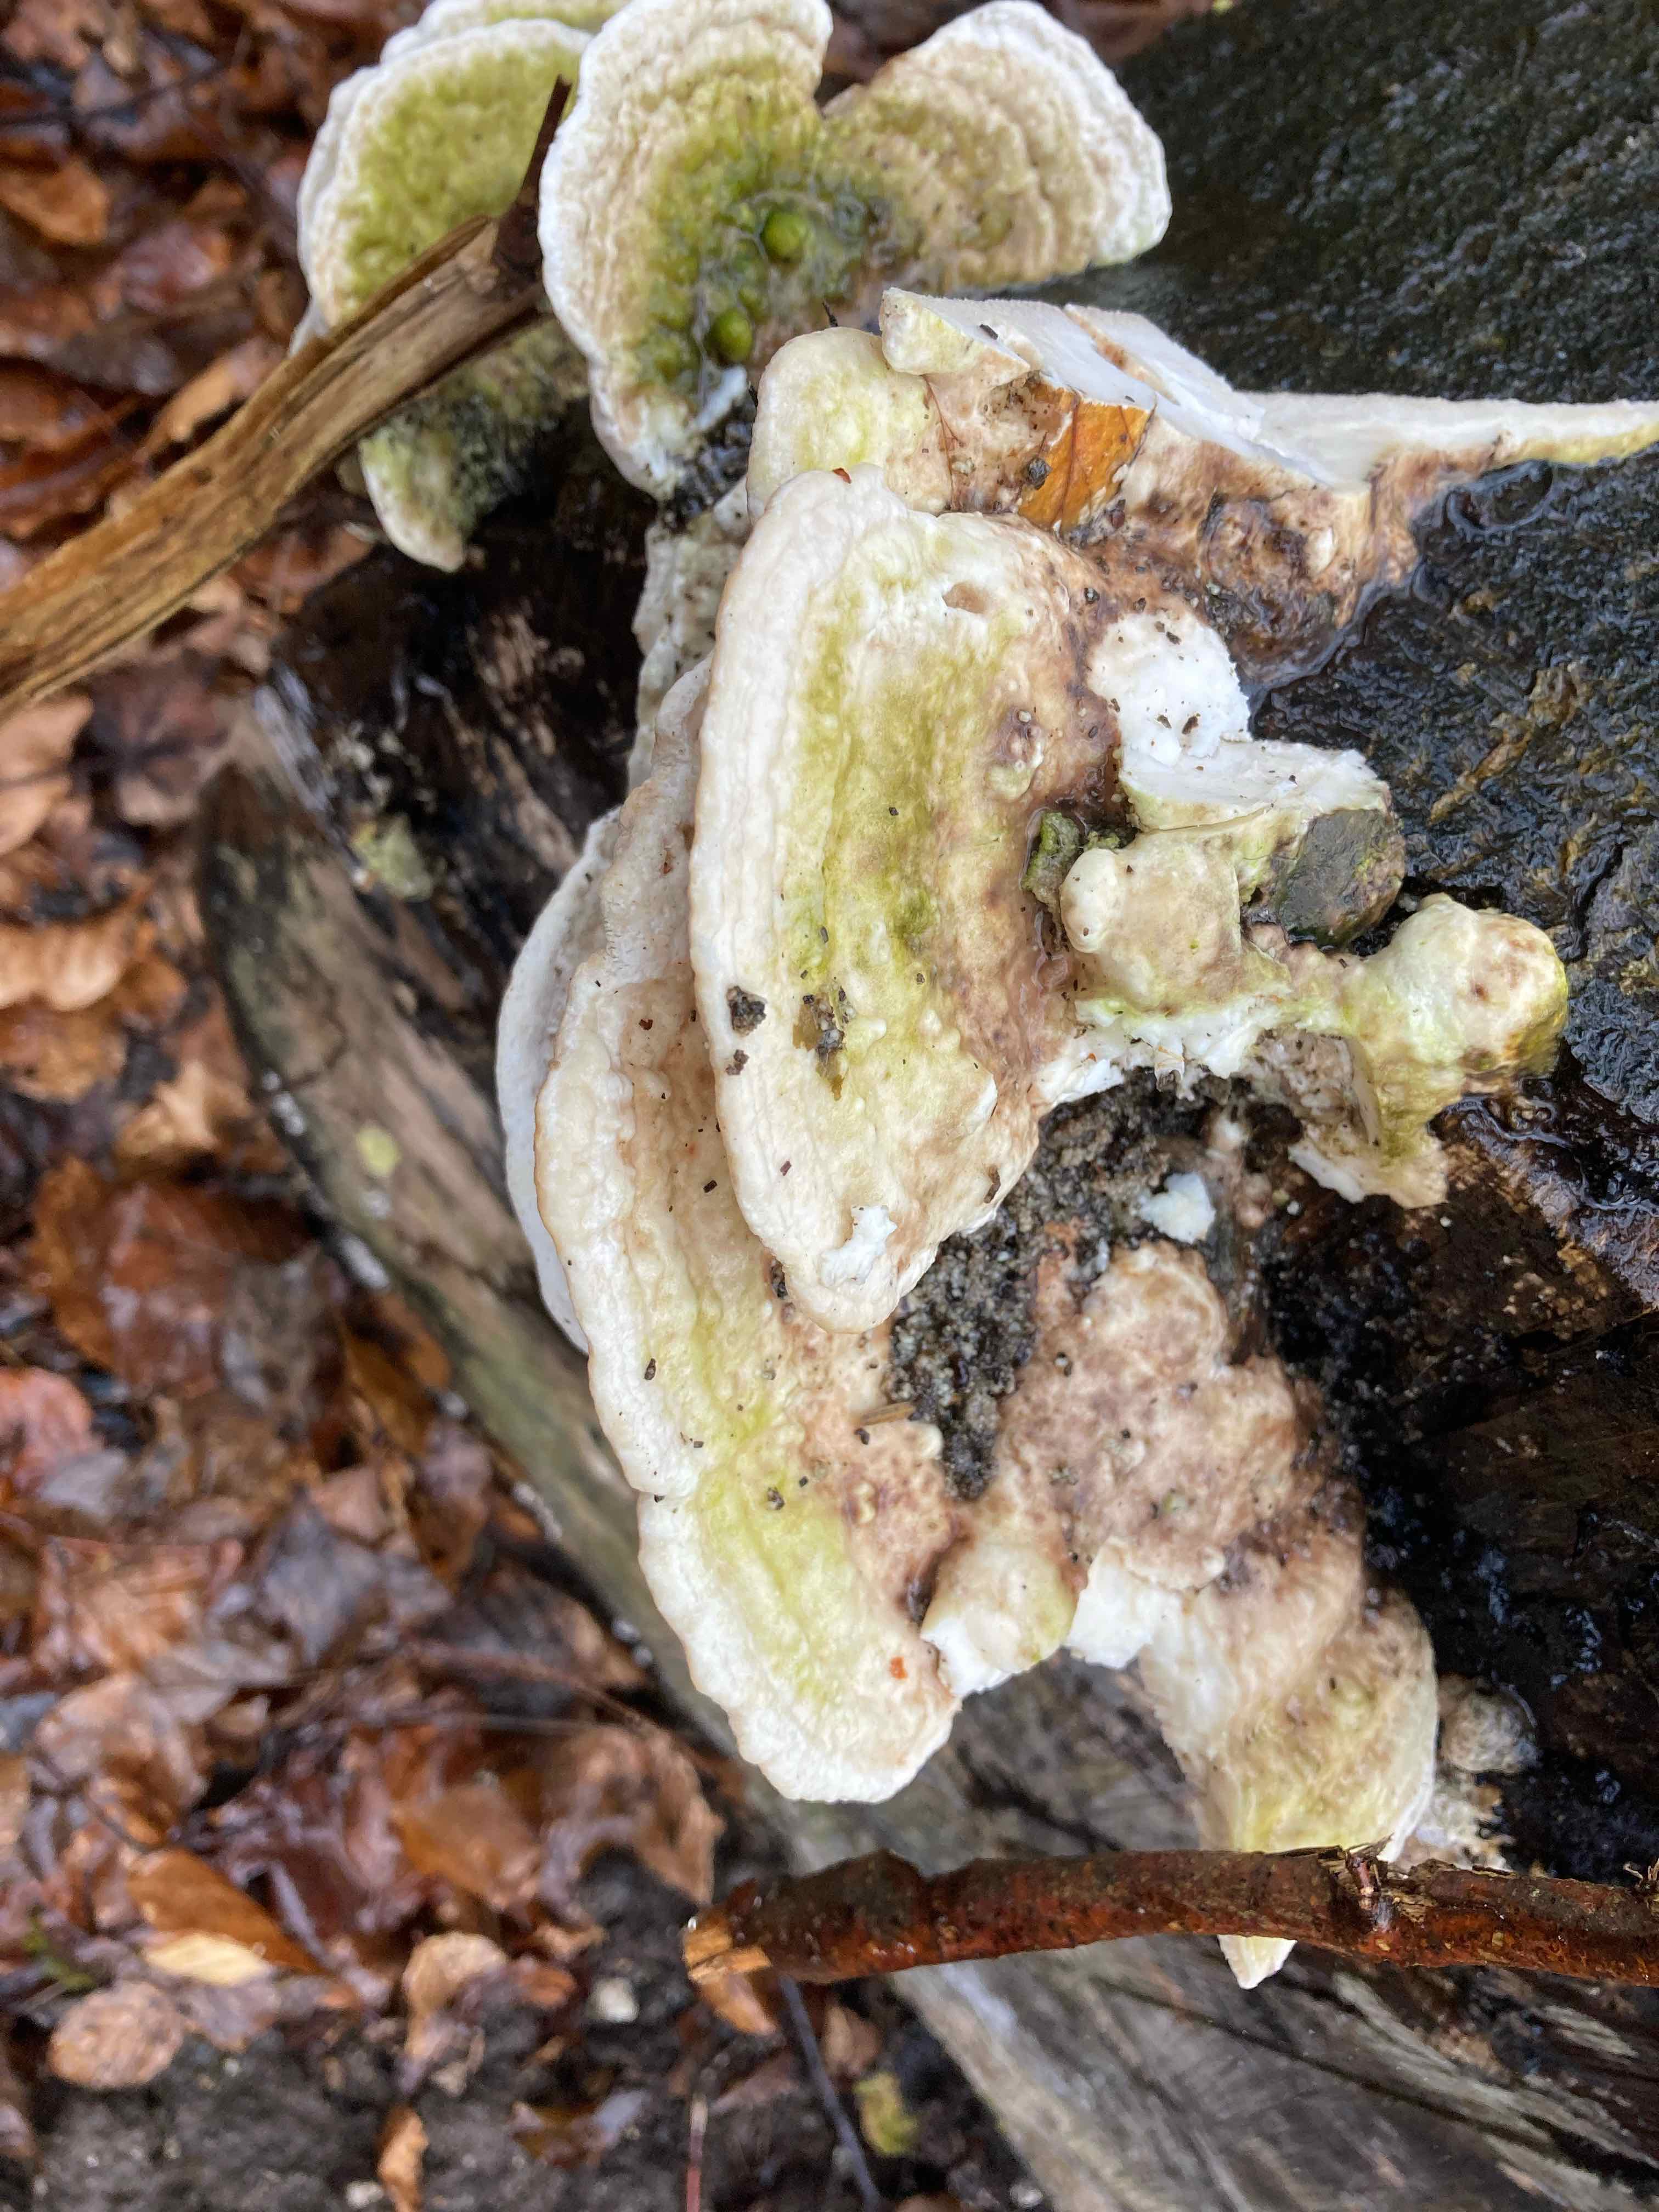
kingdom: Fungi
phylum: Basidiomycota
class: Agaricomycetes
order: Polyporales
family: Polyporaceae
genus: Trametes
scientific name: Trametes gibbosa
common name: puklet læderporesvamp
